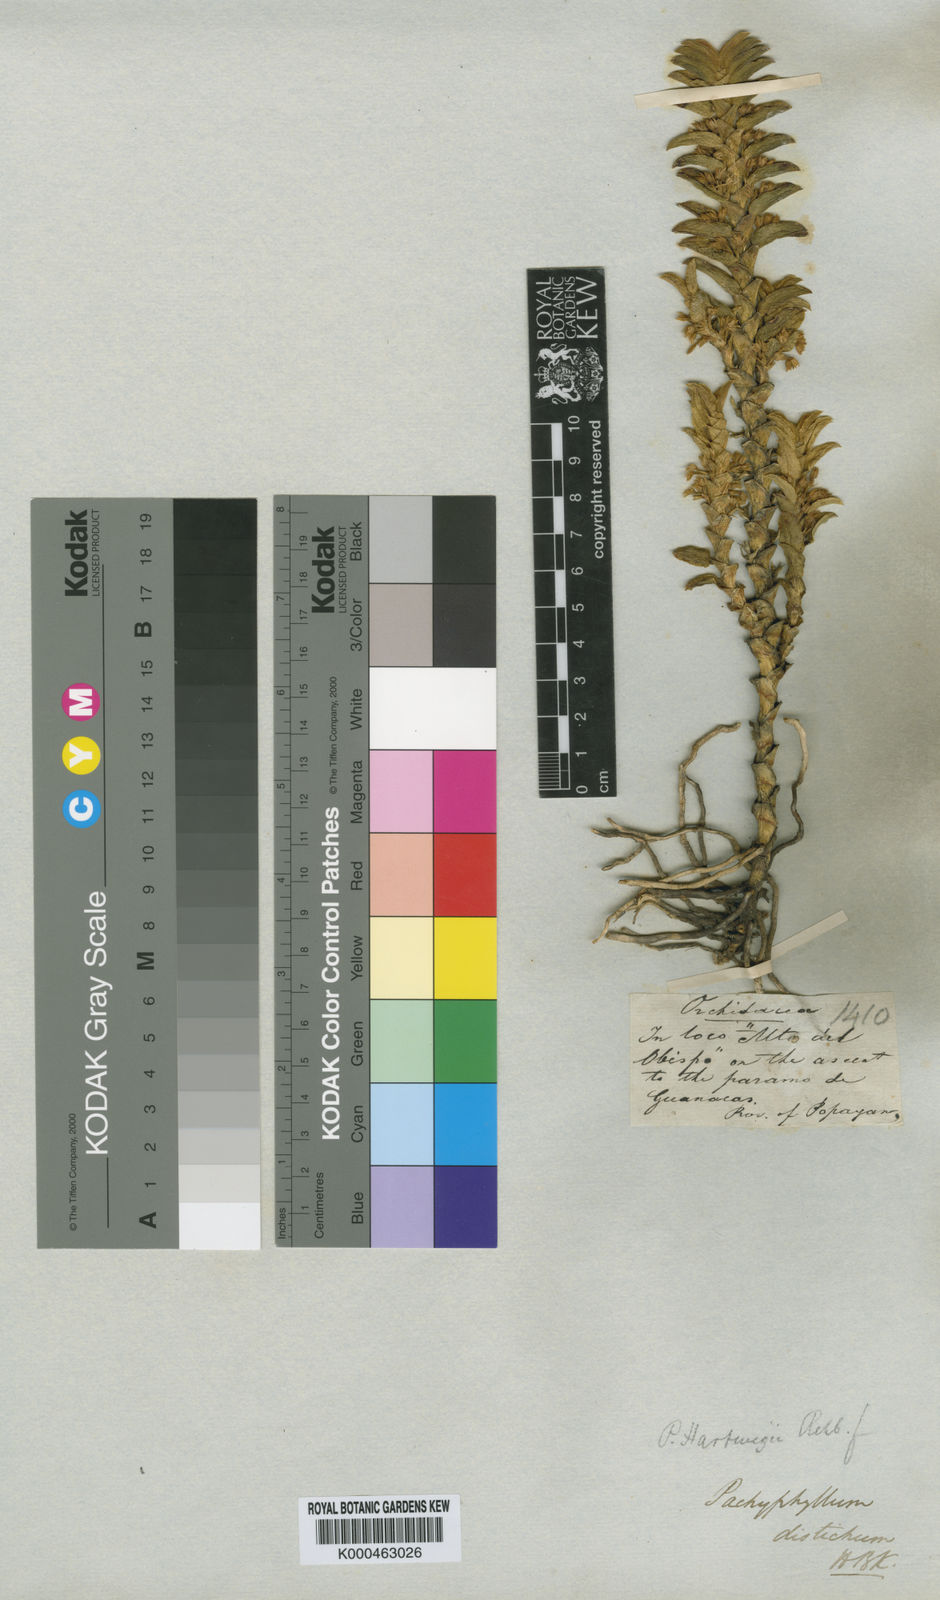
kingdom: Plantae
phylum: Tracheophyta
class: Liliopsida
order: Asparagales
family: Orchidaceae
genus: Fernandezia
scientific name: Fernandezia distichoides
